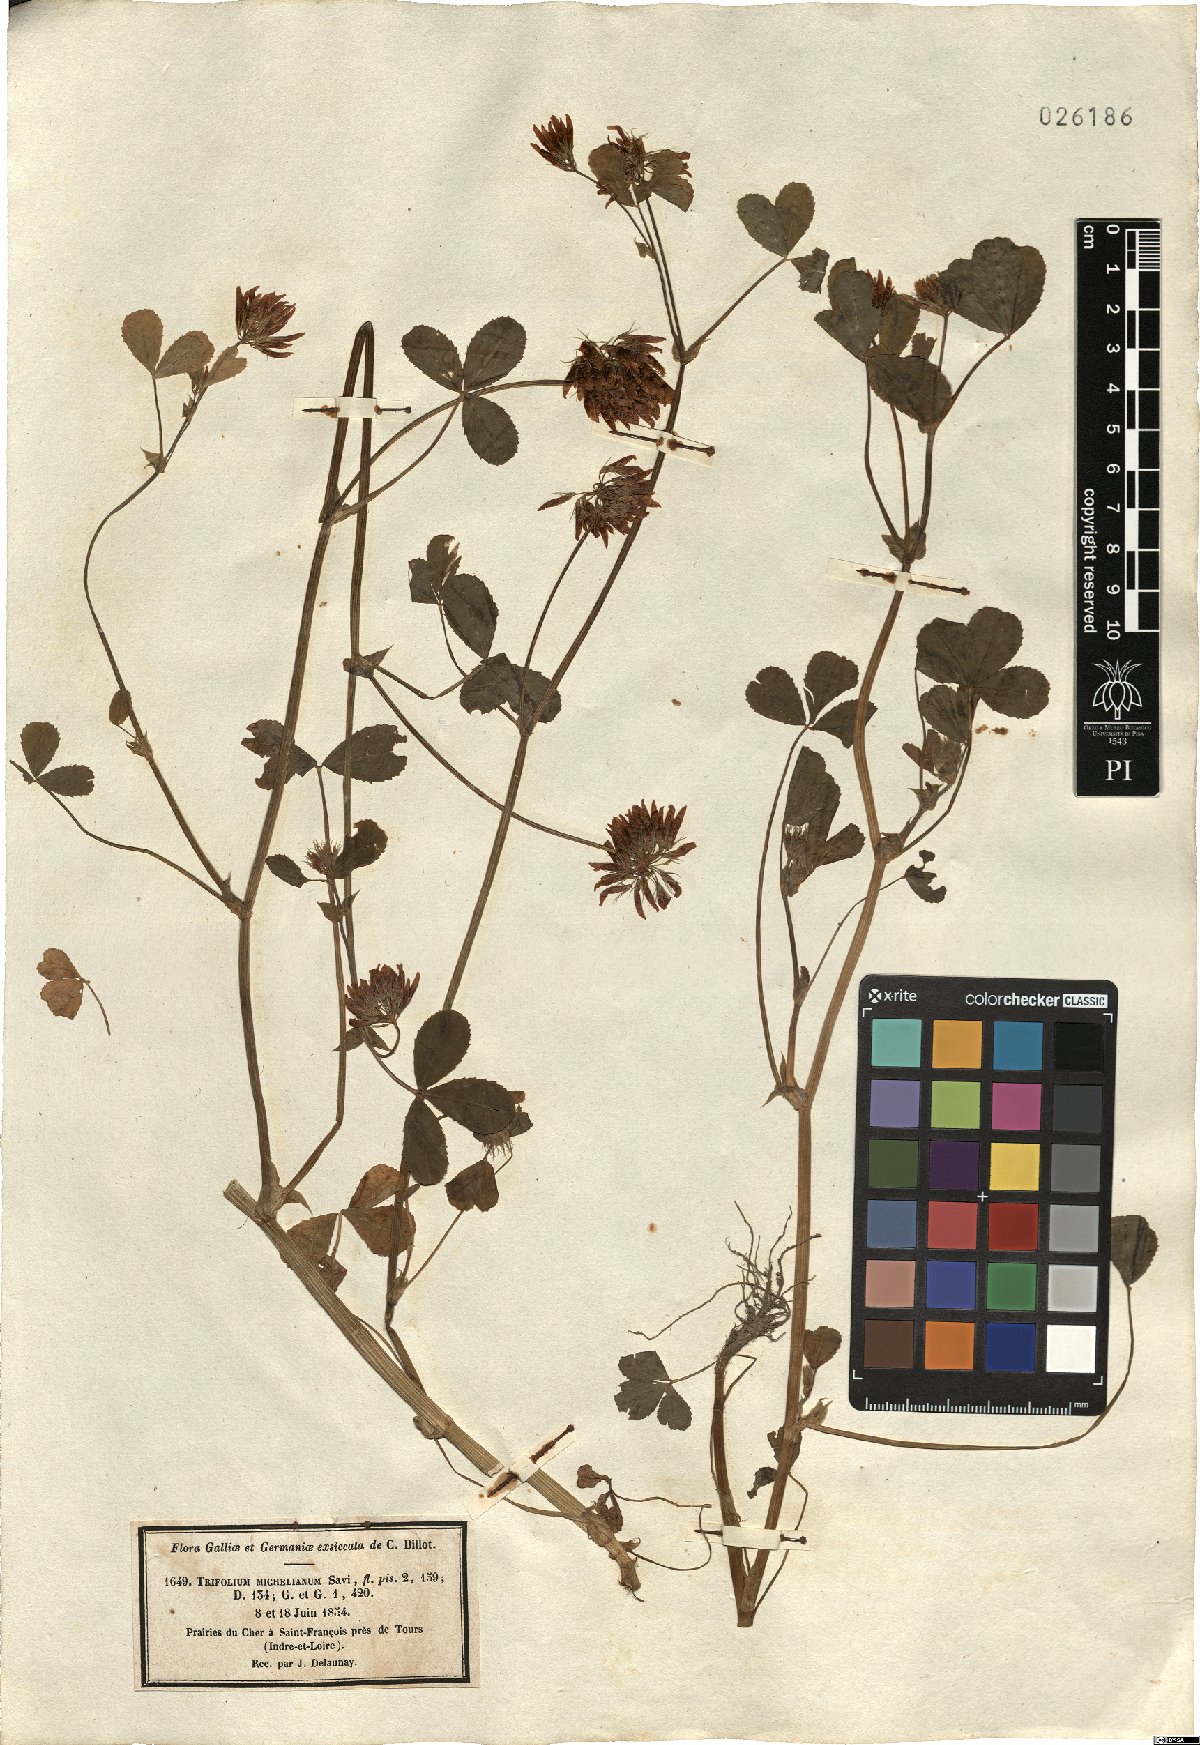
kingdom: Plantae
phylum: Tracheophyta
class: Magnoliopsida
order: Fabales
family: Fabaceae
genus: Trifolium
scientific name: Trifolium michelianum
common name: Bigflower clover
